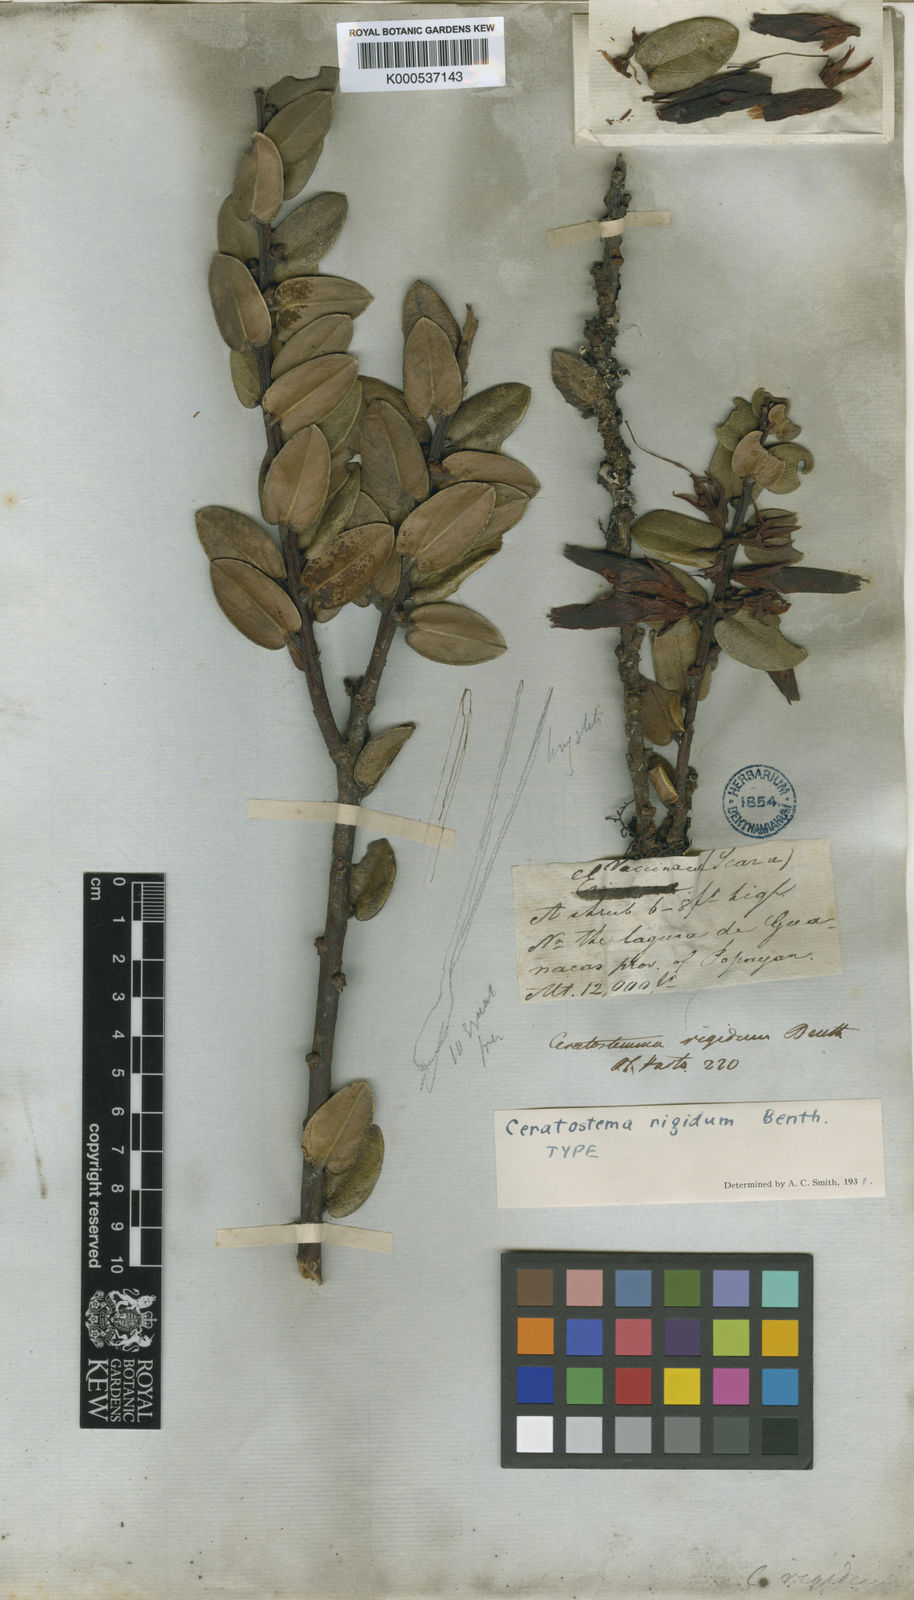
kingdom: Plantae
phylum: Tracheophyta
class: Magnoliopsida
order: Ericales
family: Ericaceae
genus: Plutarchia
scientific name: Plutarchia rigida
